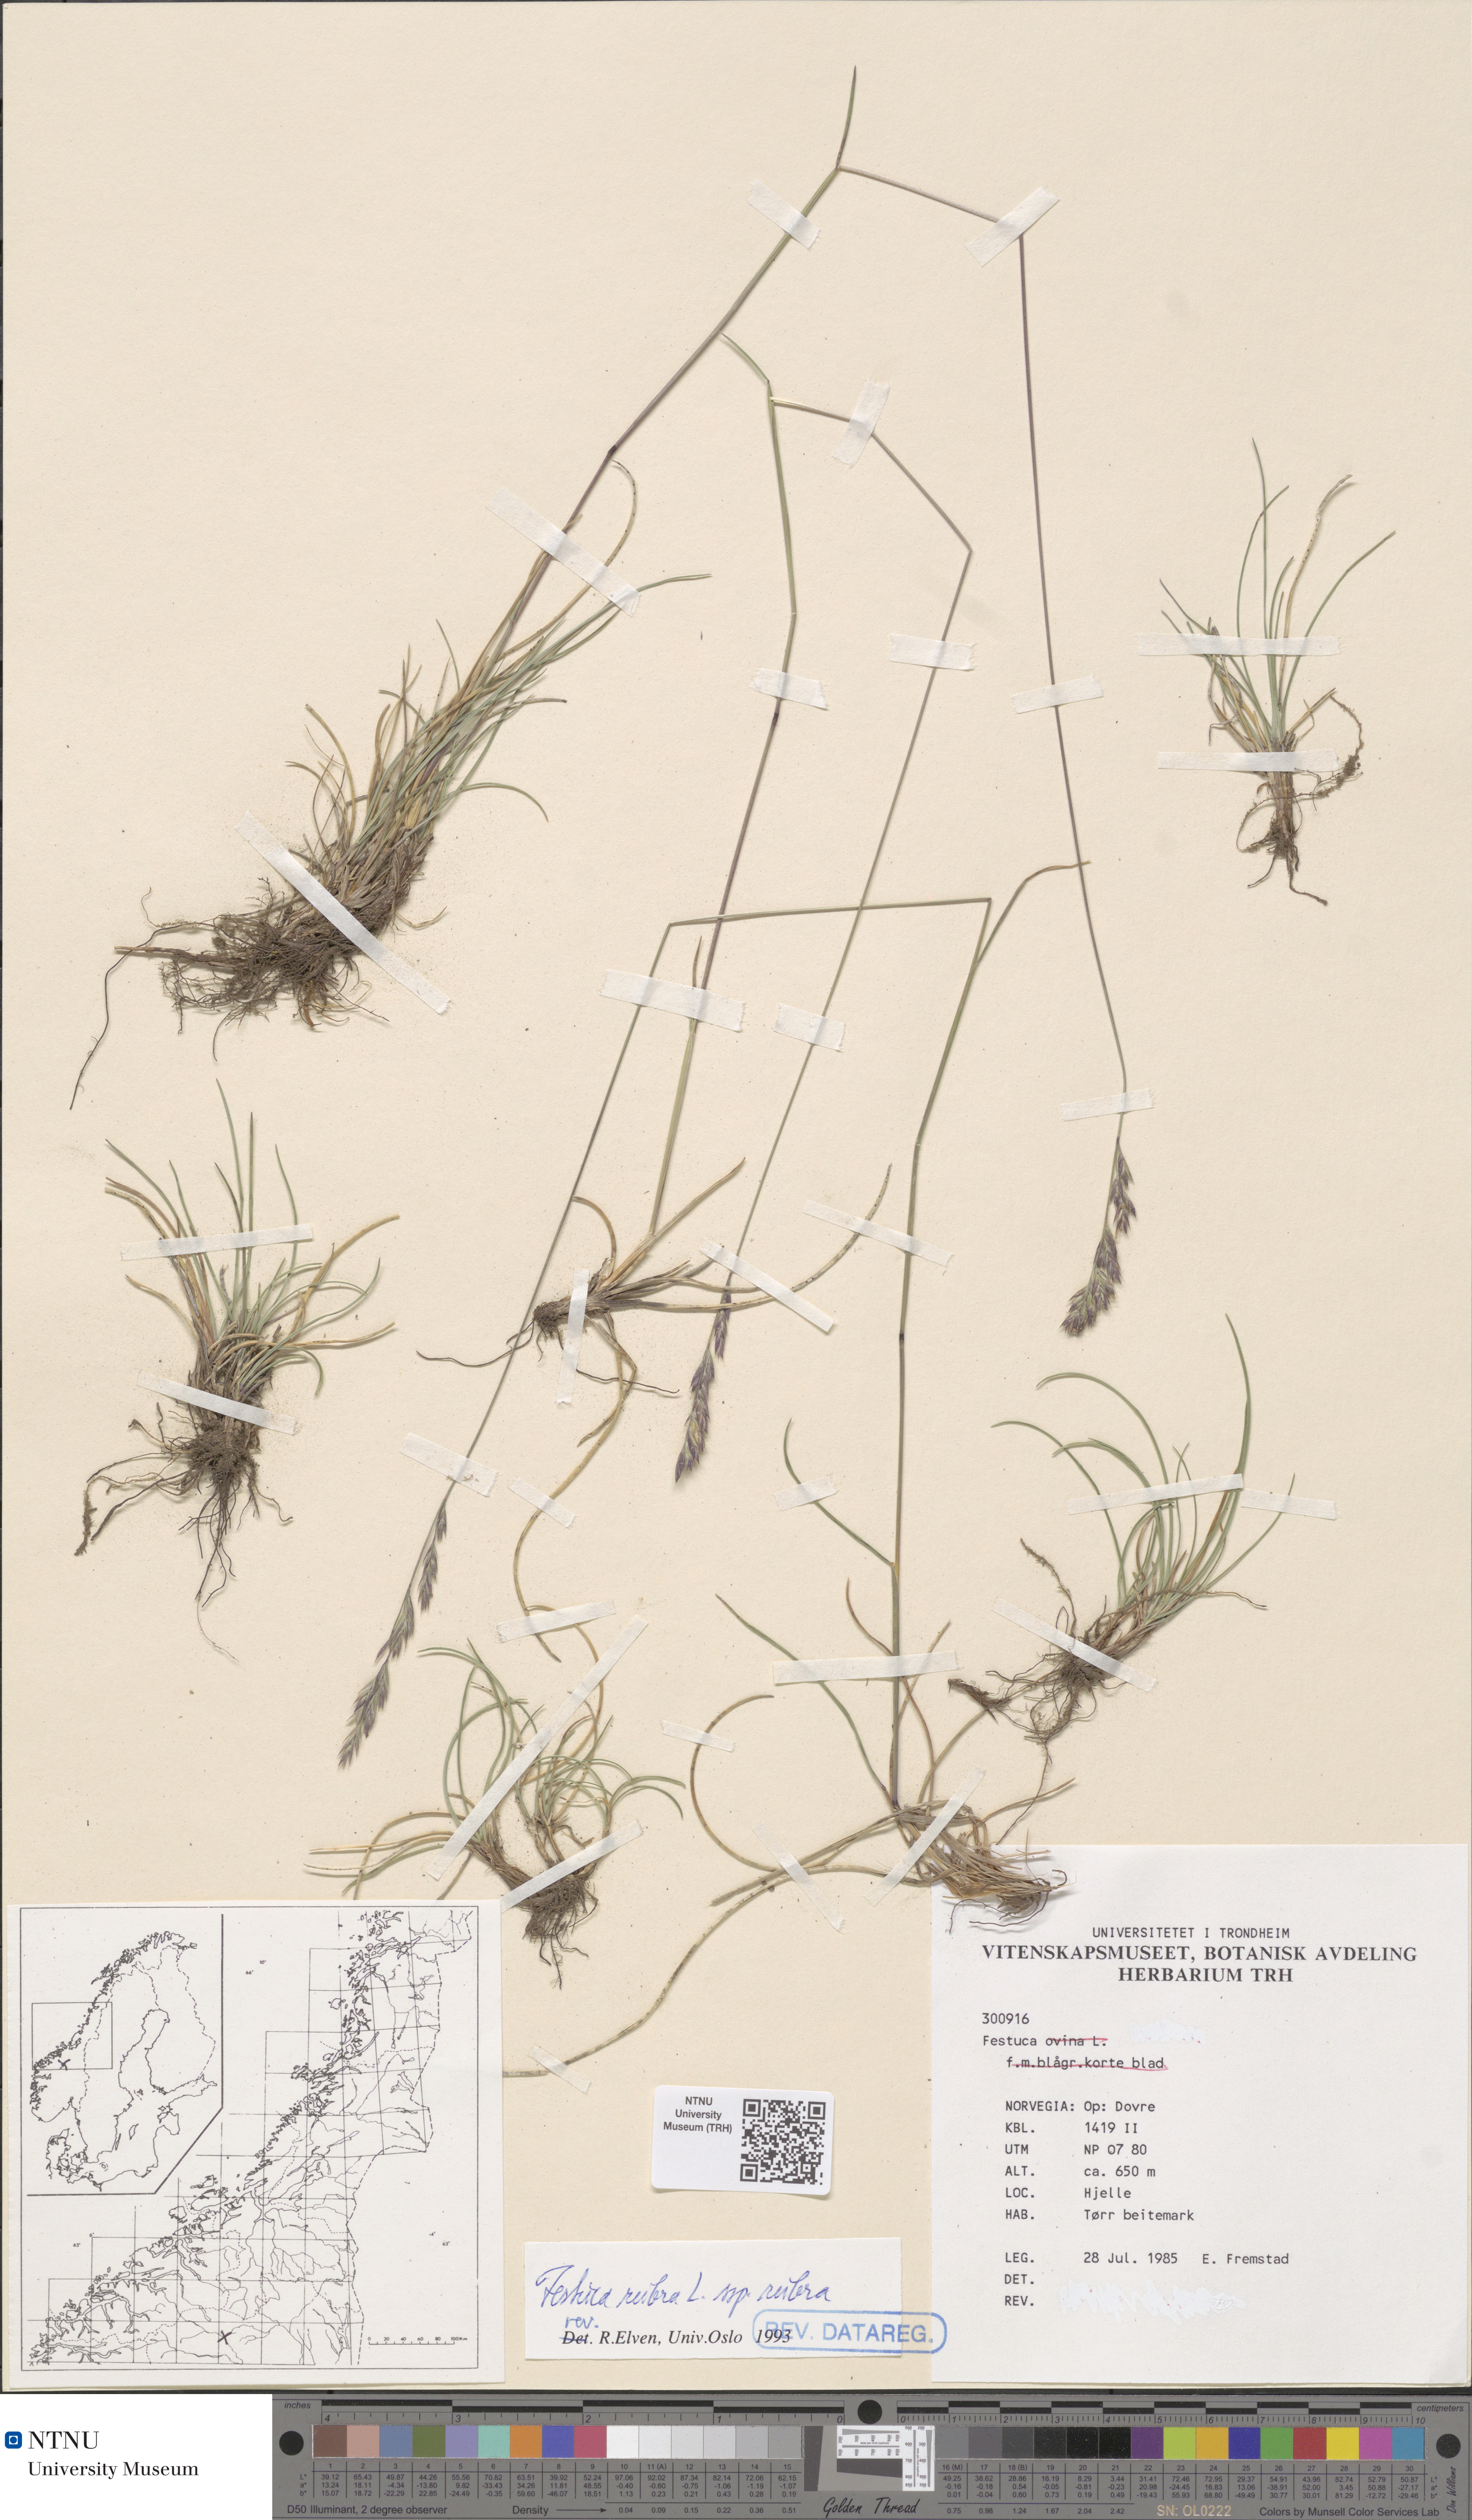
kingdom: Plantae
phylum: Tracheophyta
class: Liliopsida
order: Poales
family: Poaceae
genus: Festuca
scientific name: Festuca rubra
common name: Red fescue
